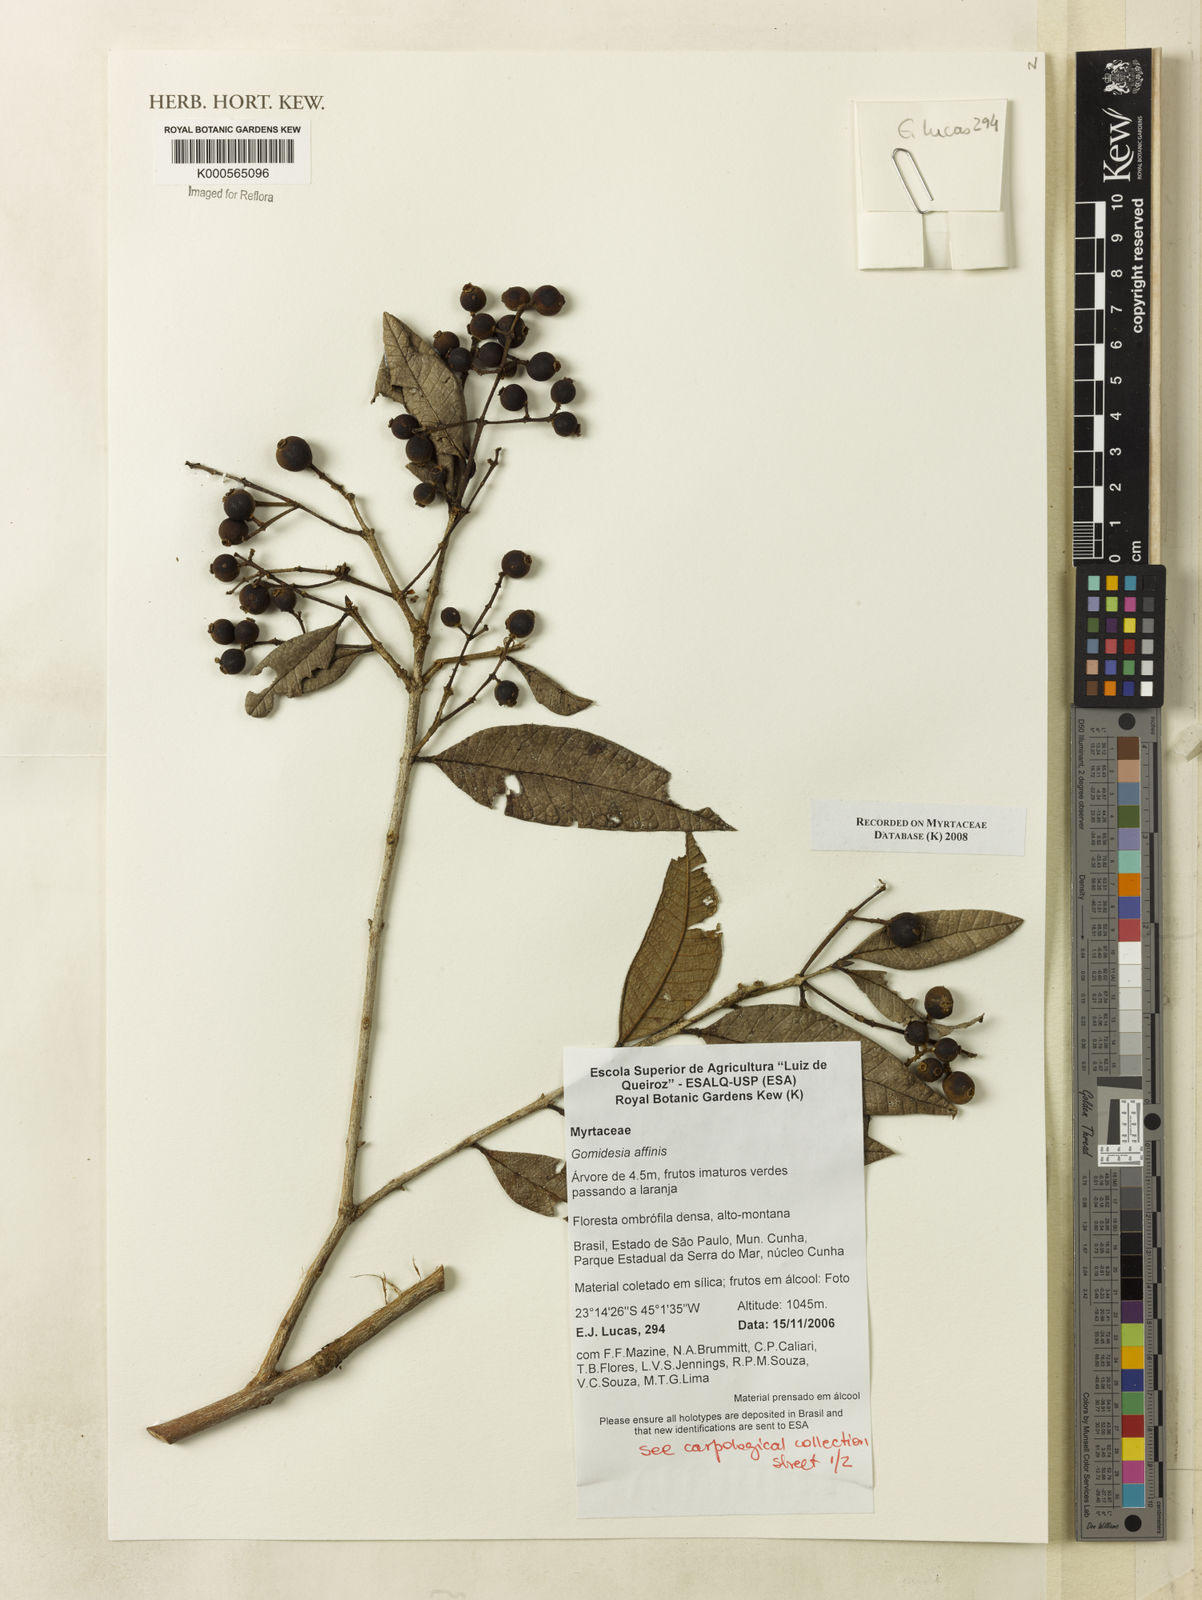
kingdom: Plantae
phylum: Tracheophyta
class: Magnoliopsida
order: Myrtales
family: Myrtaceae
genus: Myrcia
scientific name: Myrcia hebepetala
